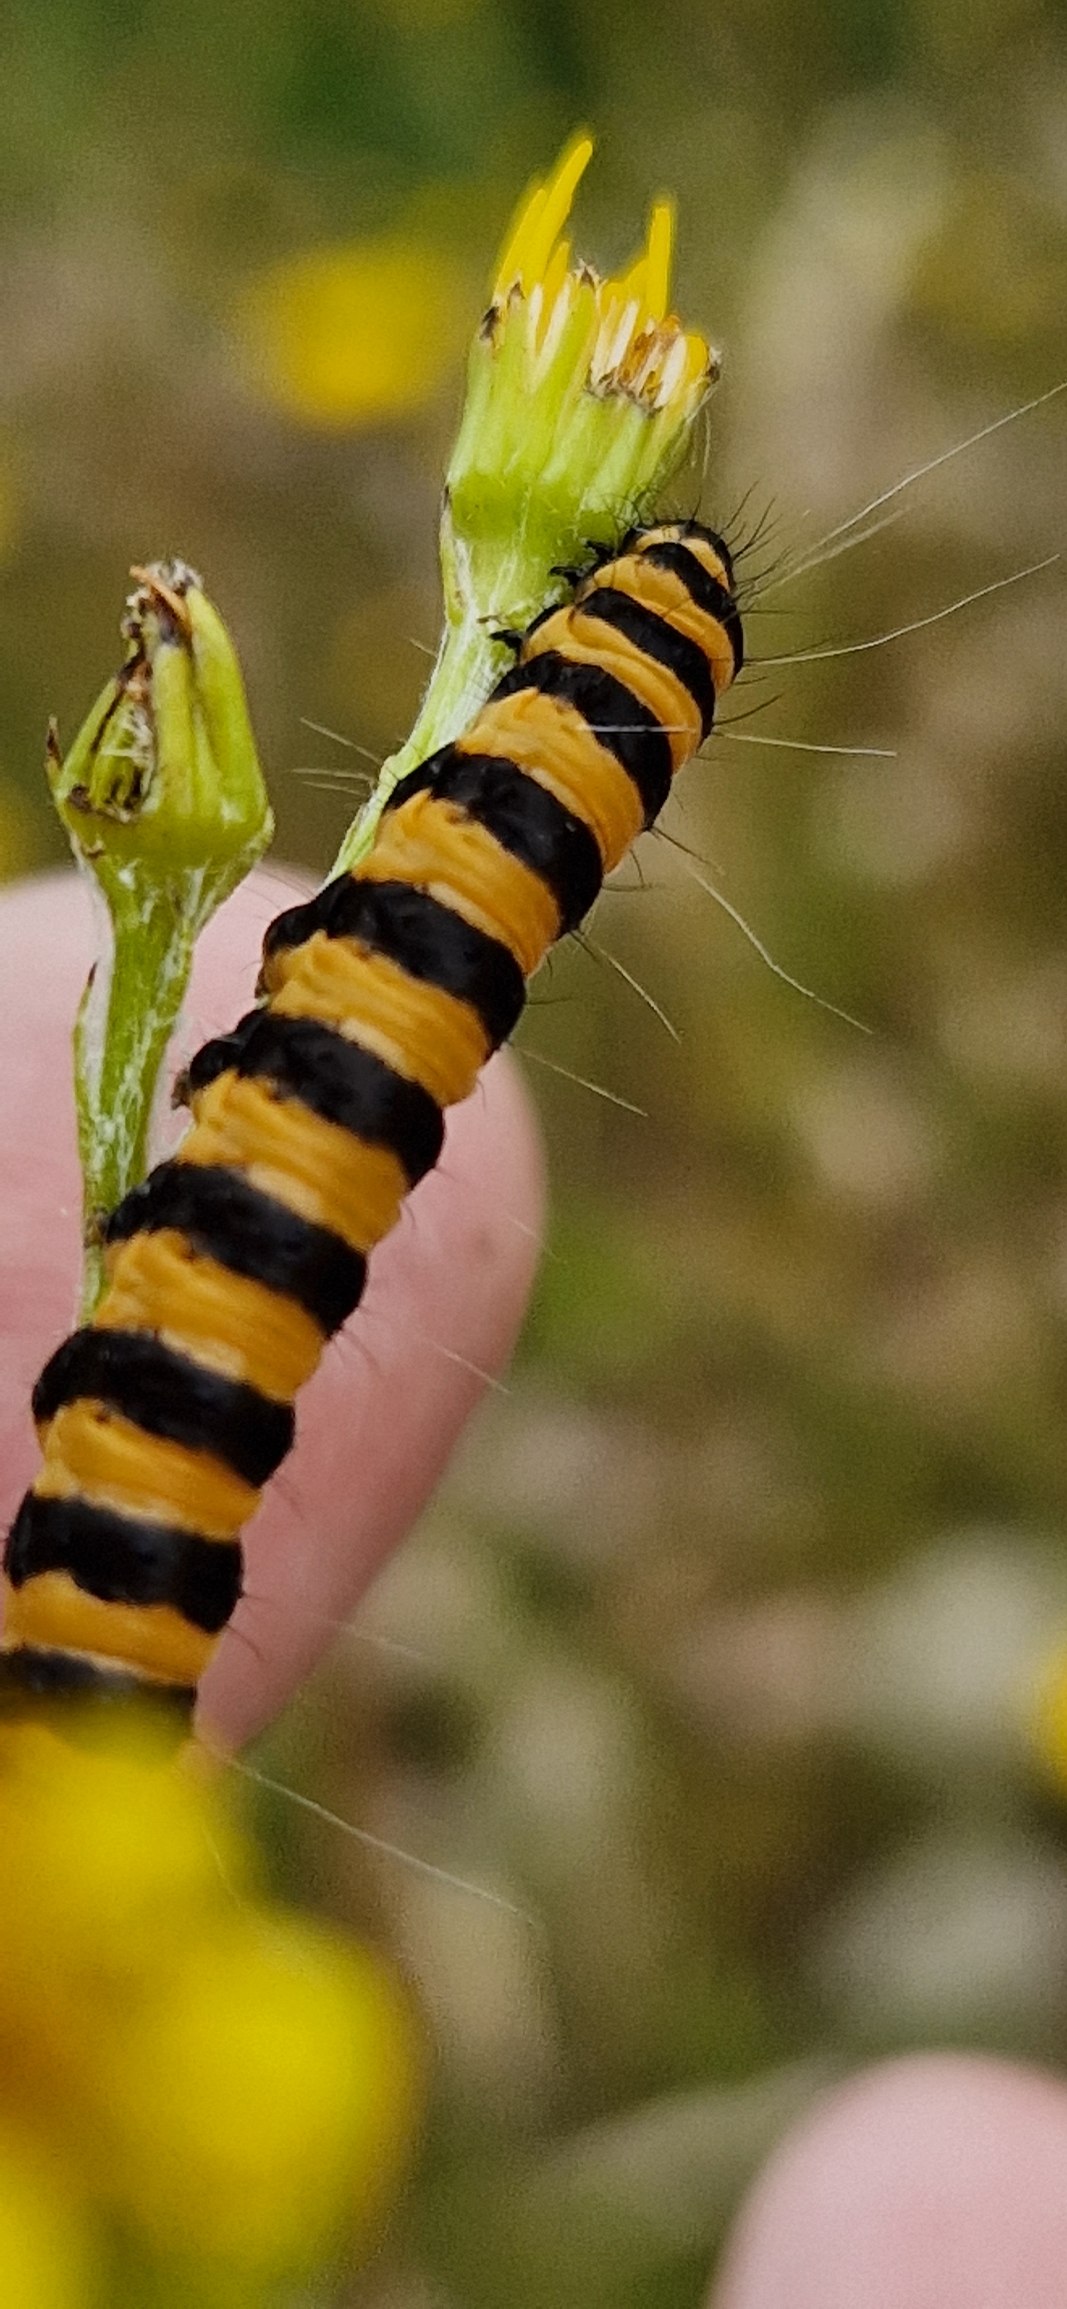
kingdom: Animalia
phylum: Arthropoda
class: Insecta
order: Lepidoptera
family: Erebidae
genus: Tyria
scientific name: Tyria jacobaeae
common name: Blodplet
